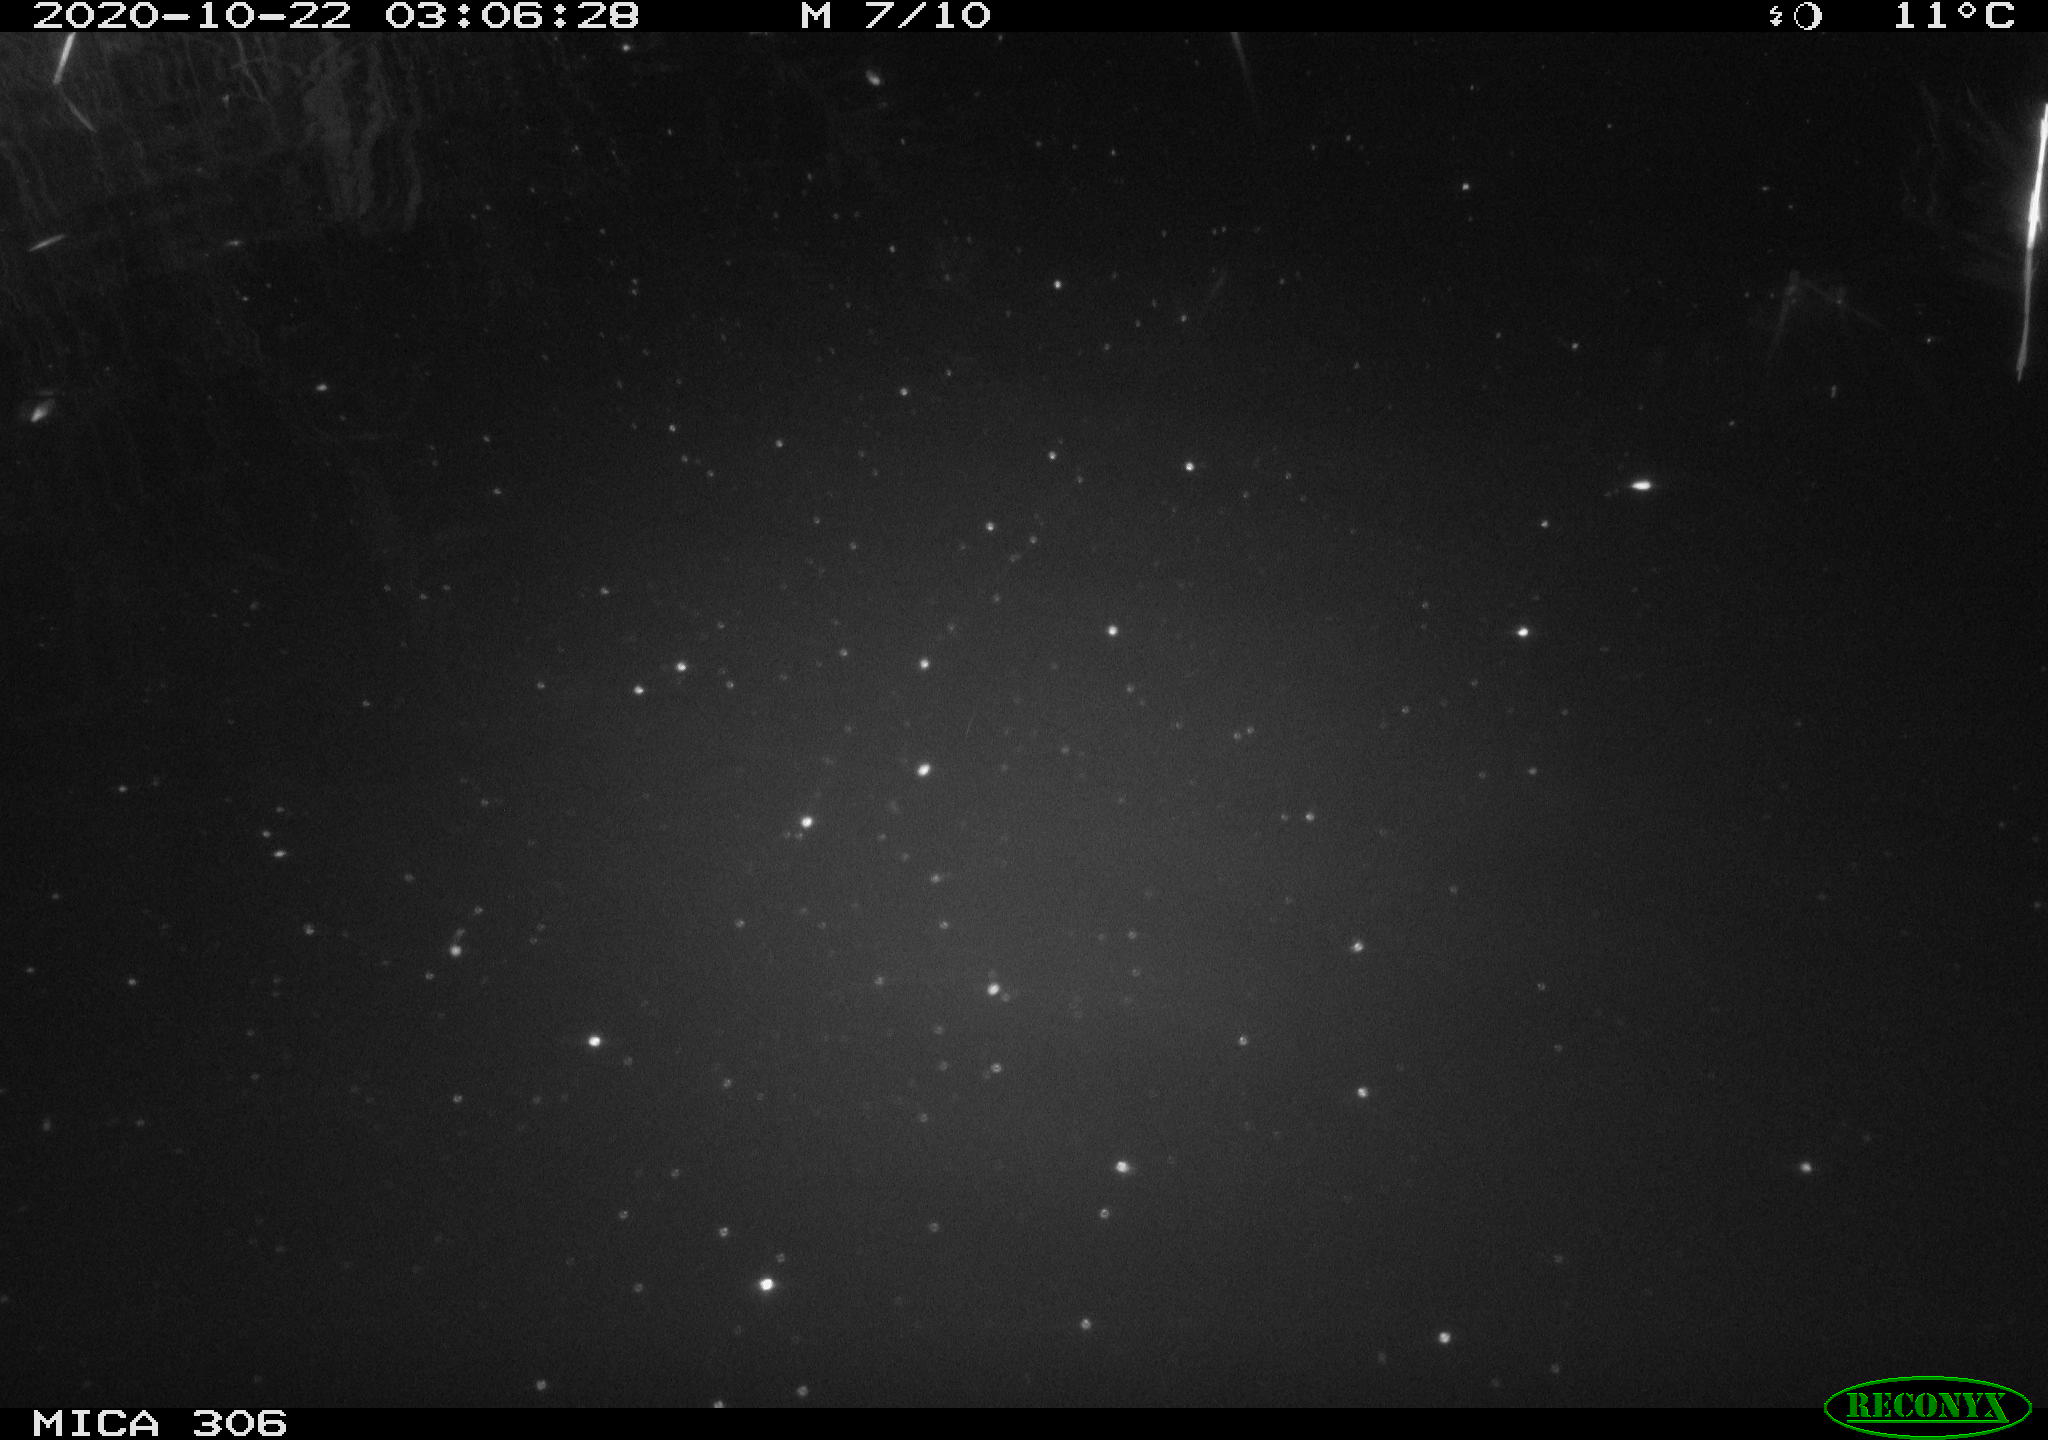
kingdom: Animalia
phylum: Chordata
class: Mammalia
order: Rodentia
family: Muridae
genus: Rattus
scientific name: Rattus norvegicus
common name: Brown rat
